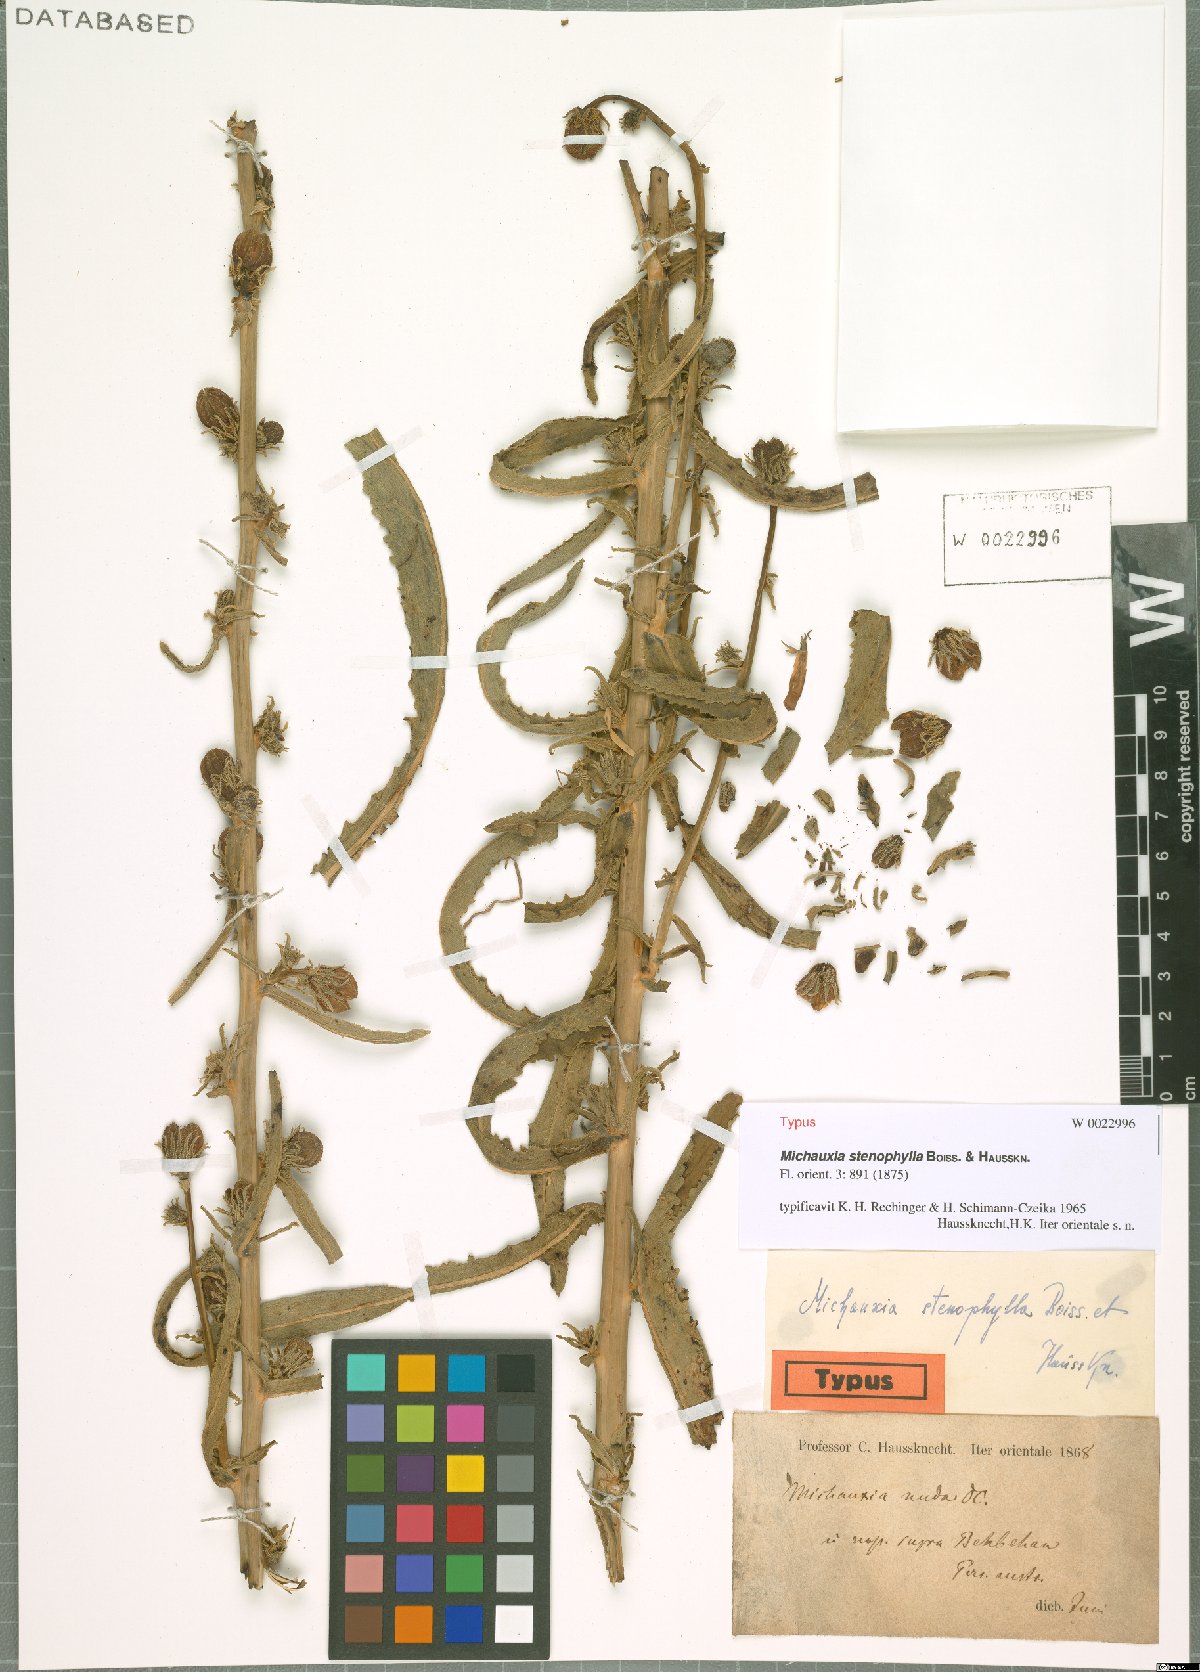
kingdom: Plantae
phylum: Tracheophyta
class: Magnoliopsida
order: Asterales
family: Campanulaceae
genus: Michauxia
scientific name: Michauxia stenophylla
